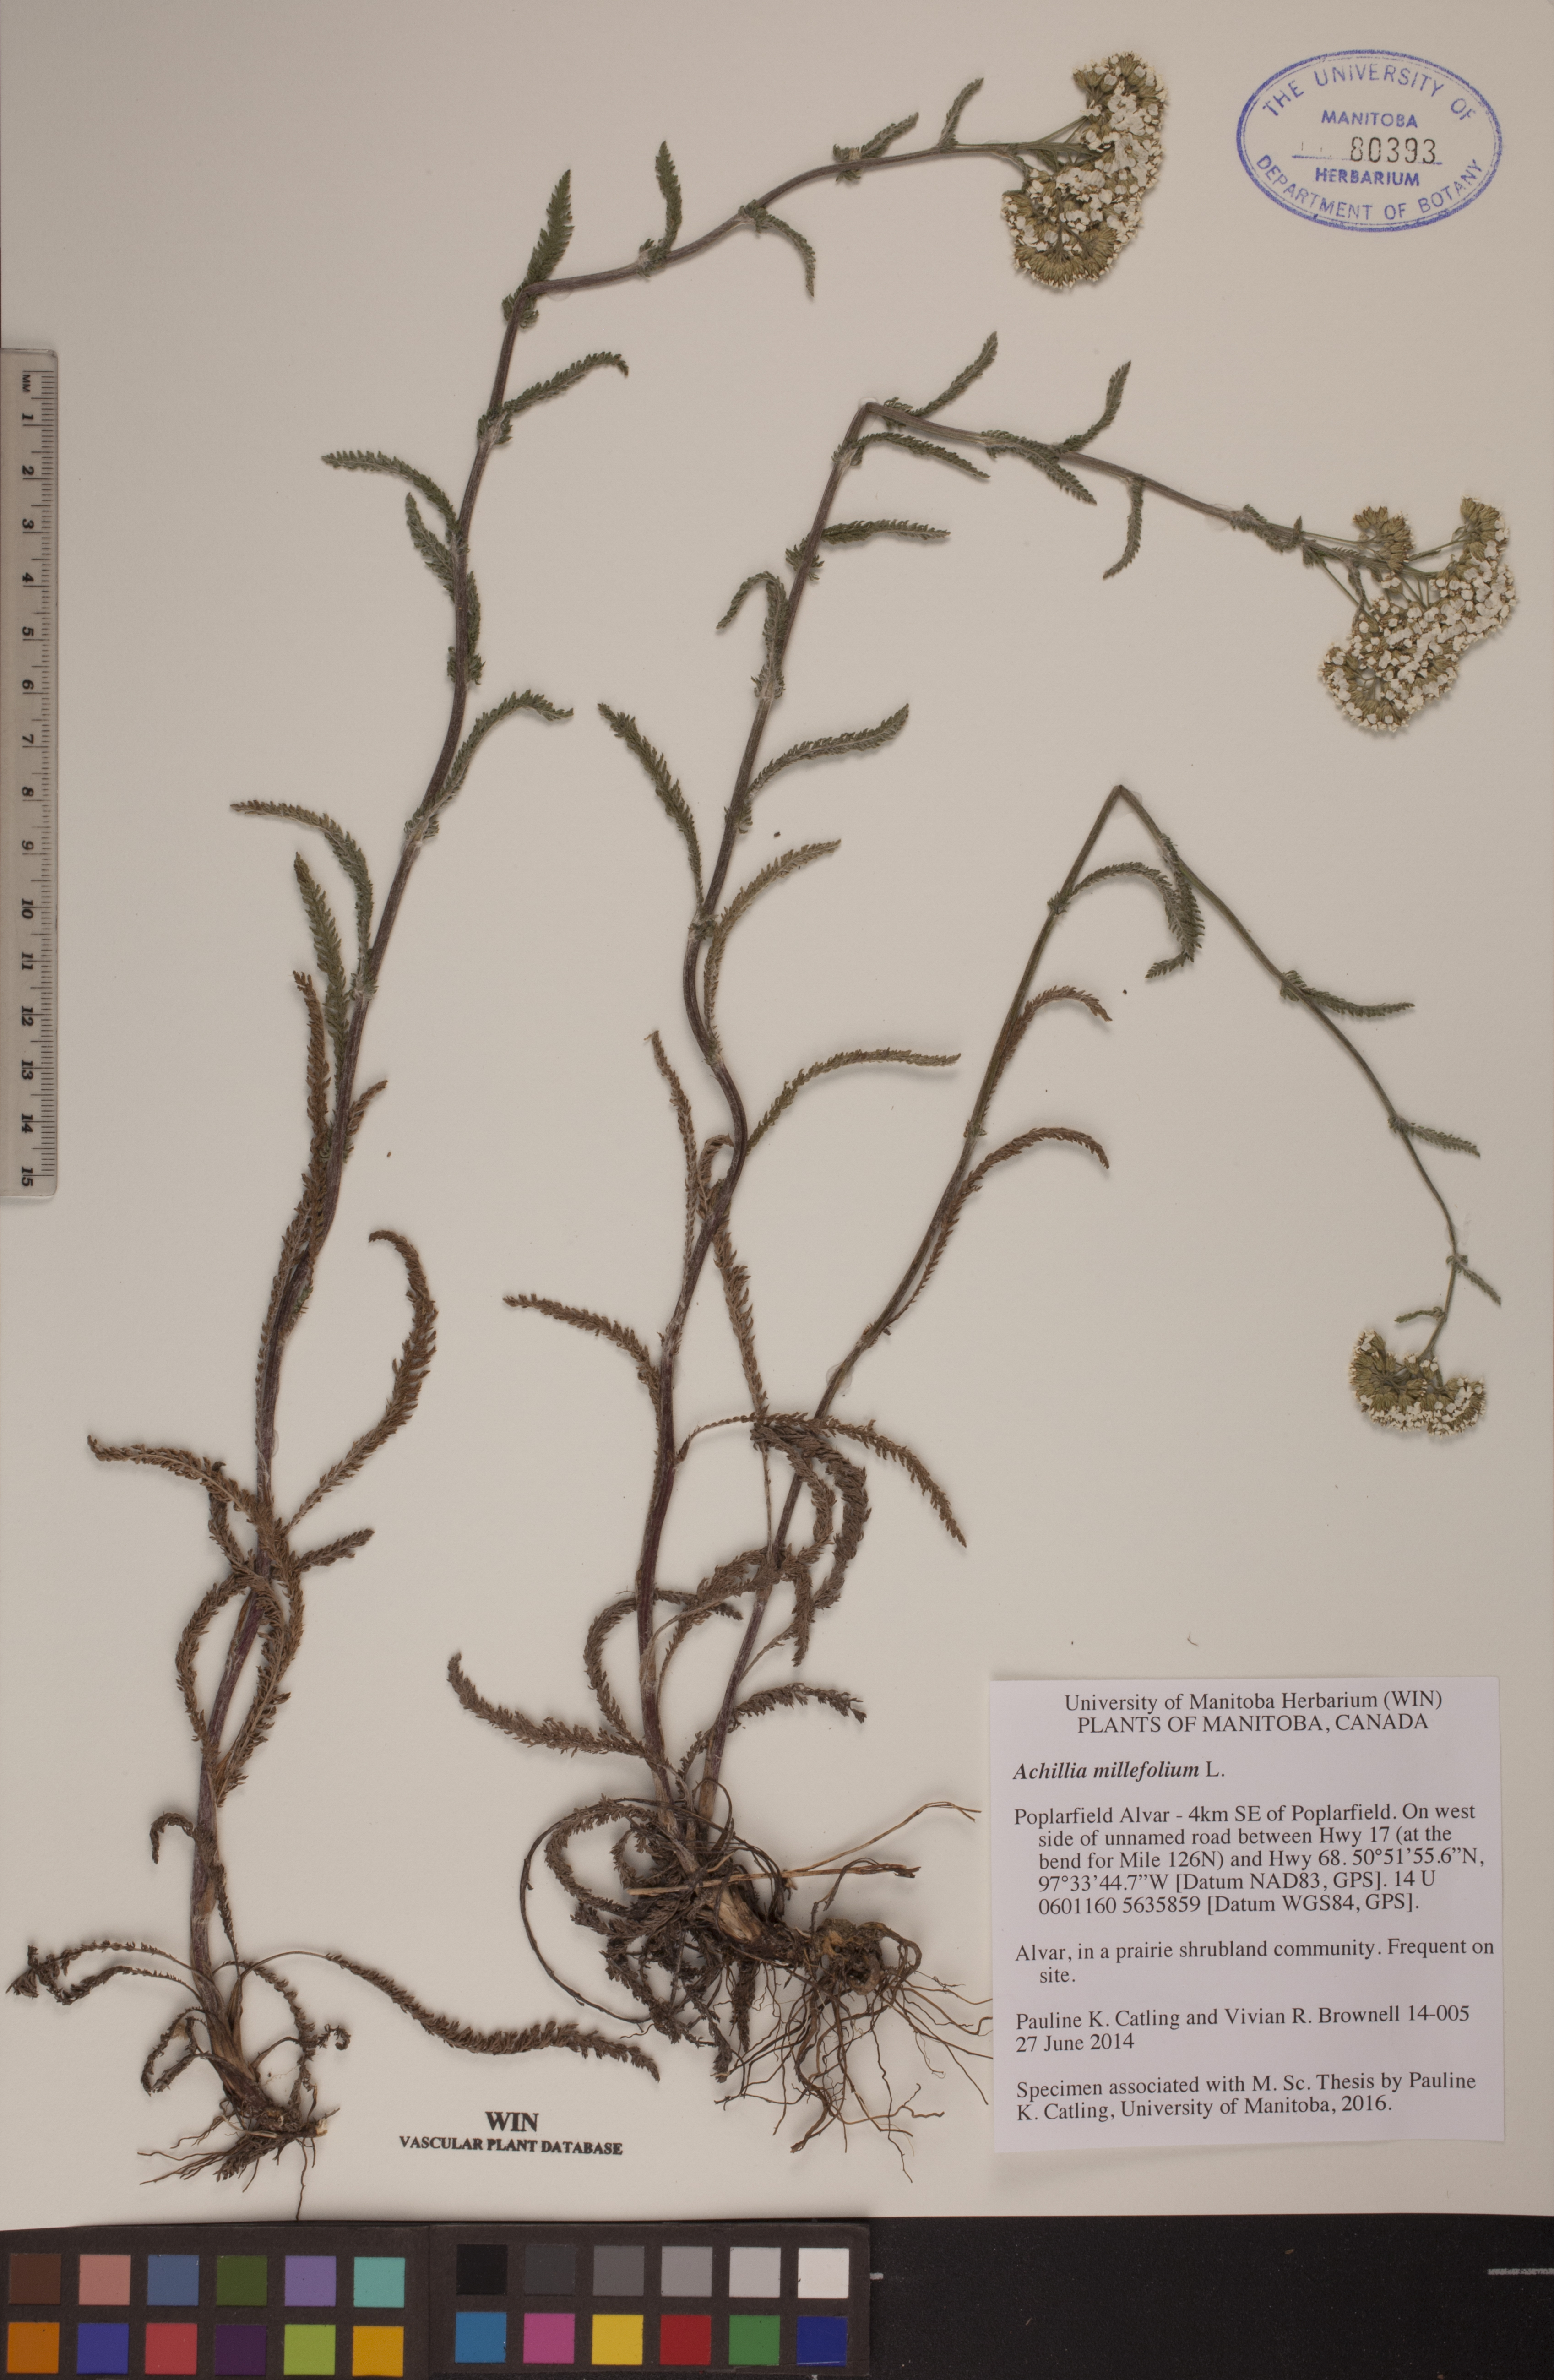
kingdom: Plantae
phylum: Tracheophyta
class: Magnoliopsida
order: Asterales
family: Asteraceae
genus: Achillea
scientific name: Achillea millefolium
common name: Yarrow
